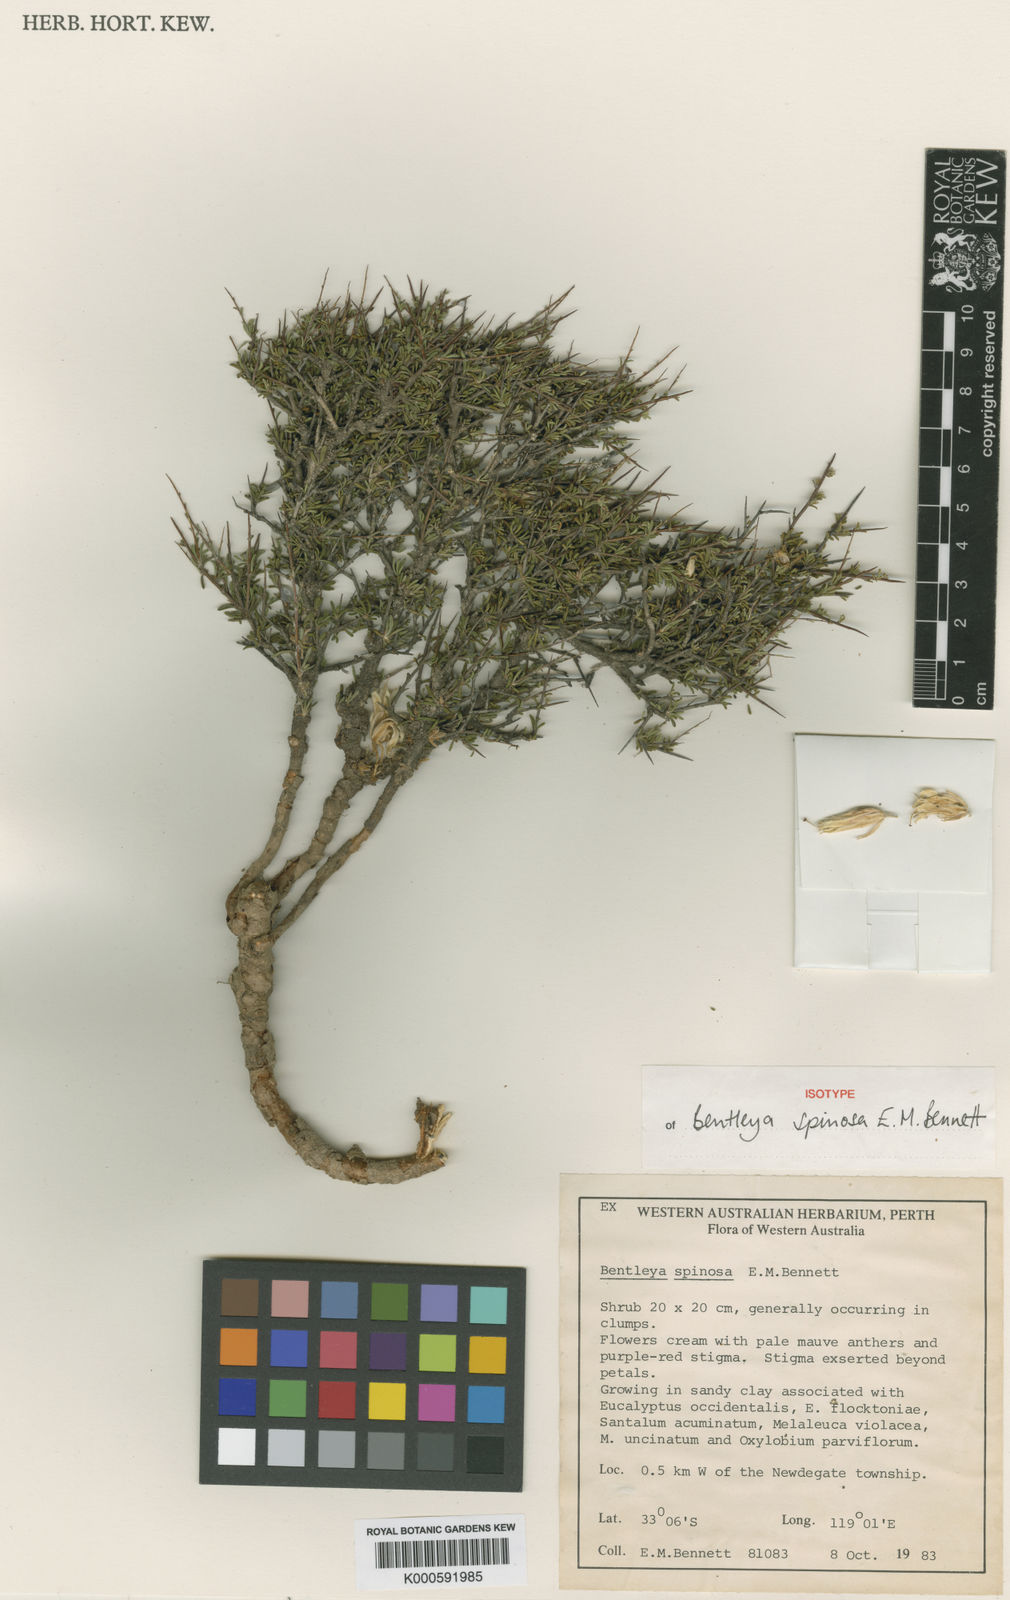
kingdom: Plantae
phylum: Tracheophyta
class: Magnoliopsida
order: Apiales
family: Pittosporaceae
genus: Bentleya
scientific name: Bentleya spinescens
